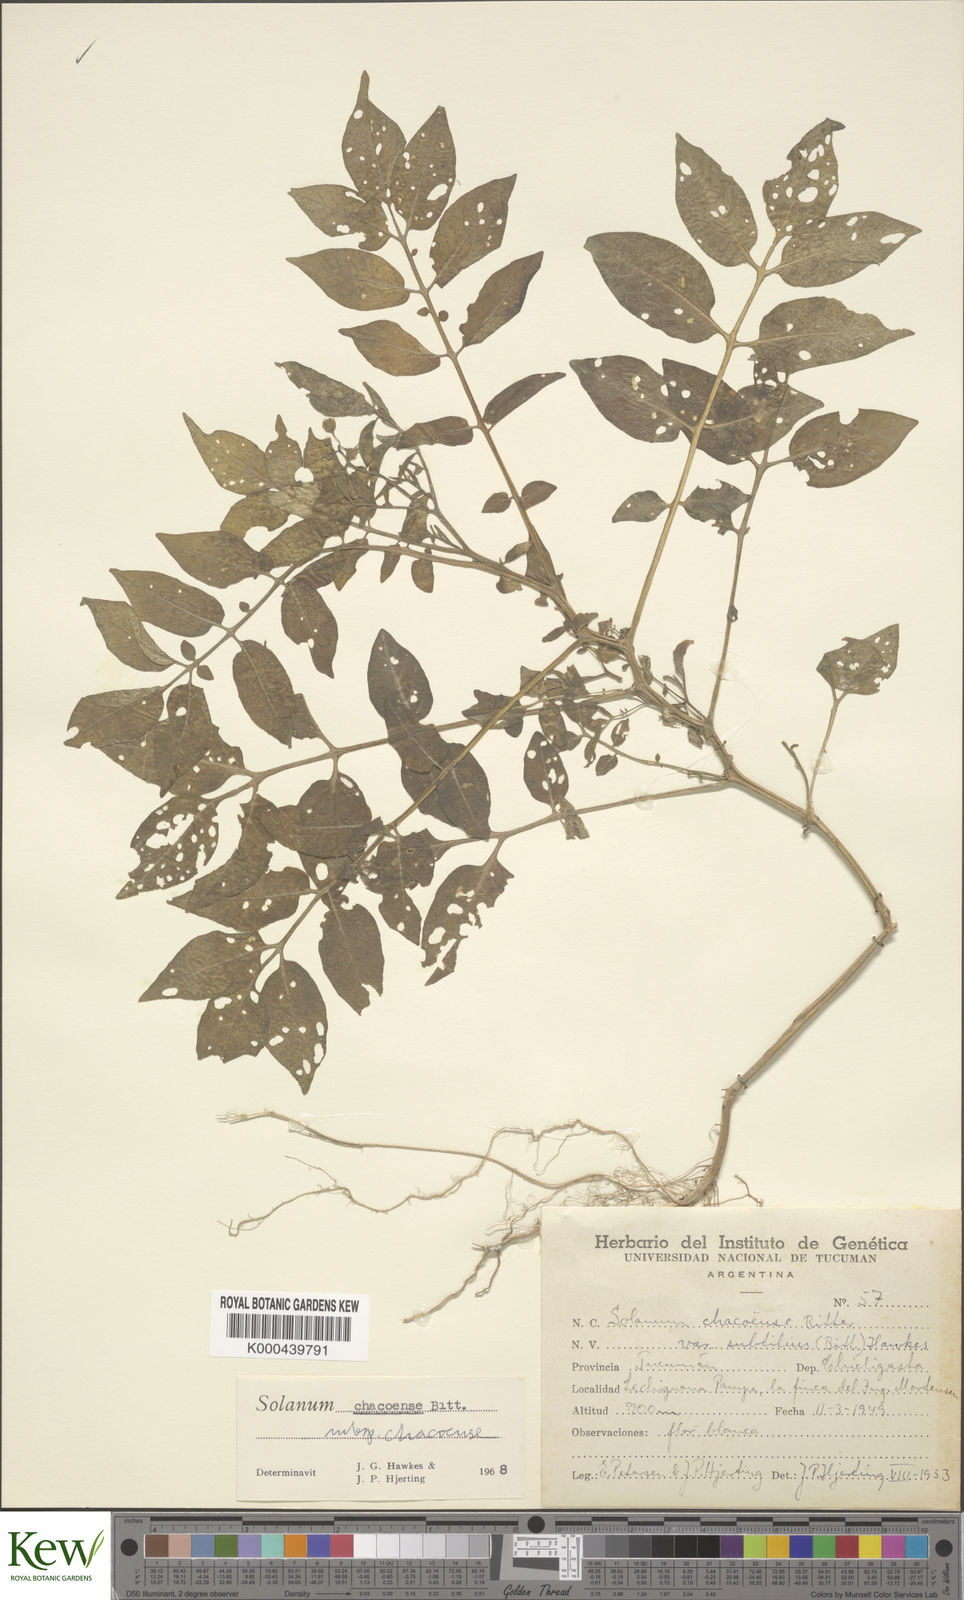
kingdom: Plantae
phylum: Tracheophyta
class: Magnoliopsida
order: Solanales
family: Solanaceae
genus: Solanum
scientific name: Solanum chacoense
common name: Chaco potato
